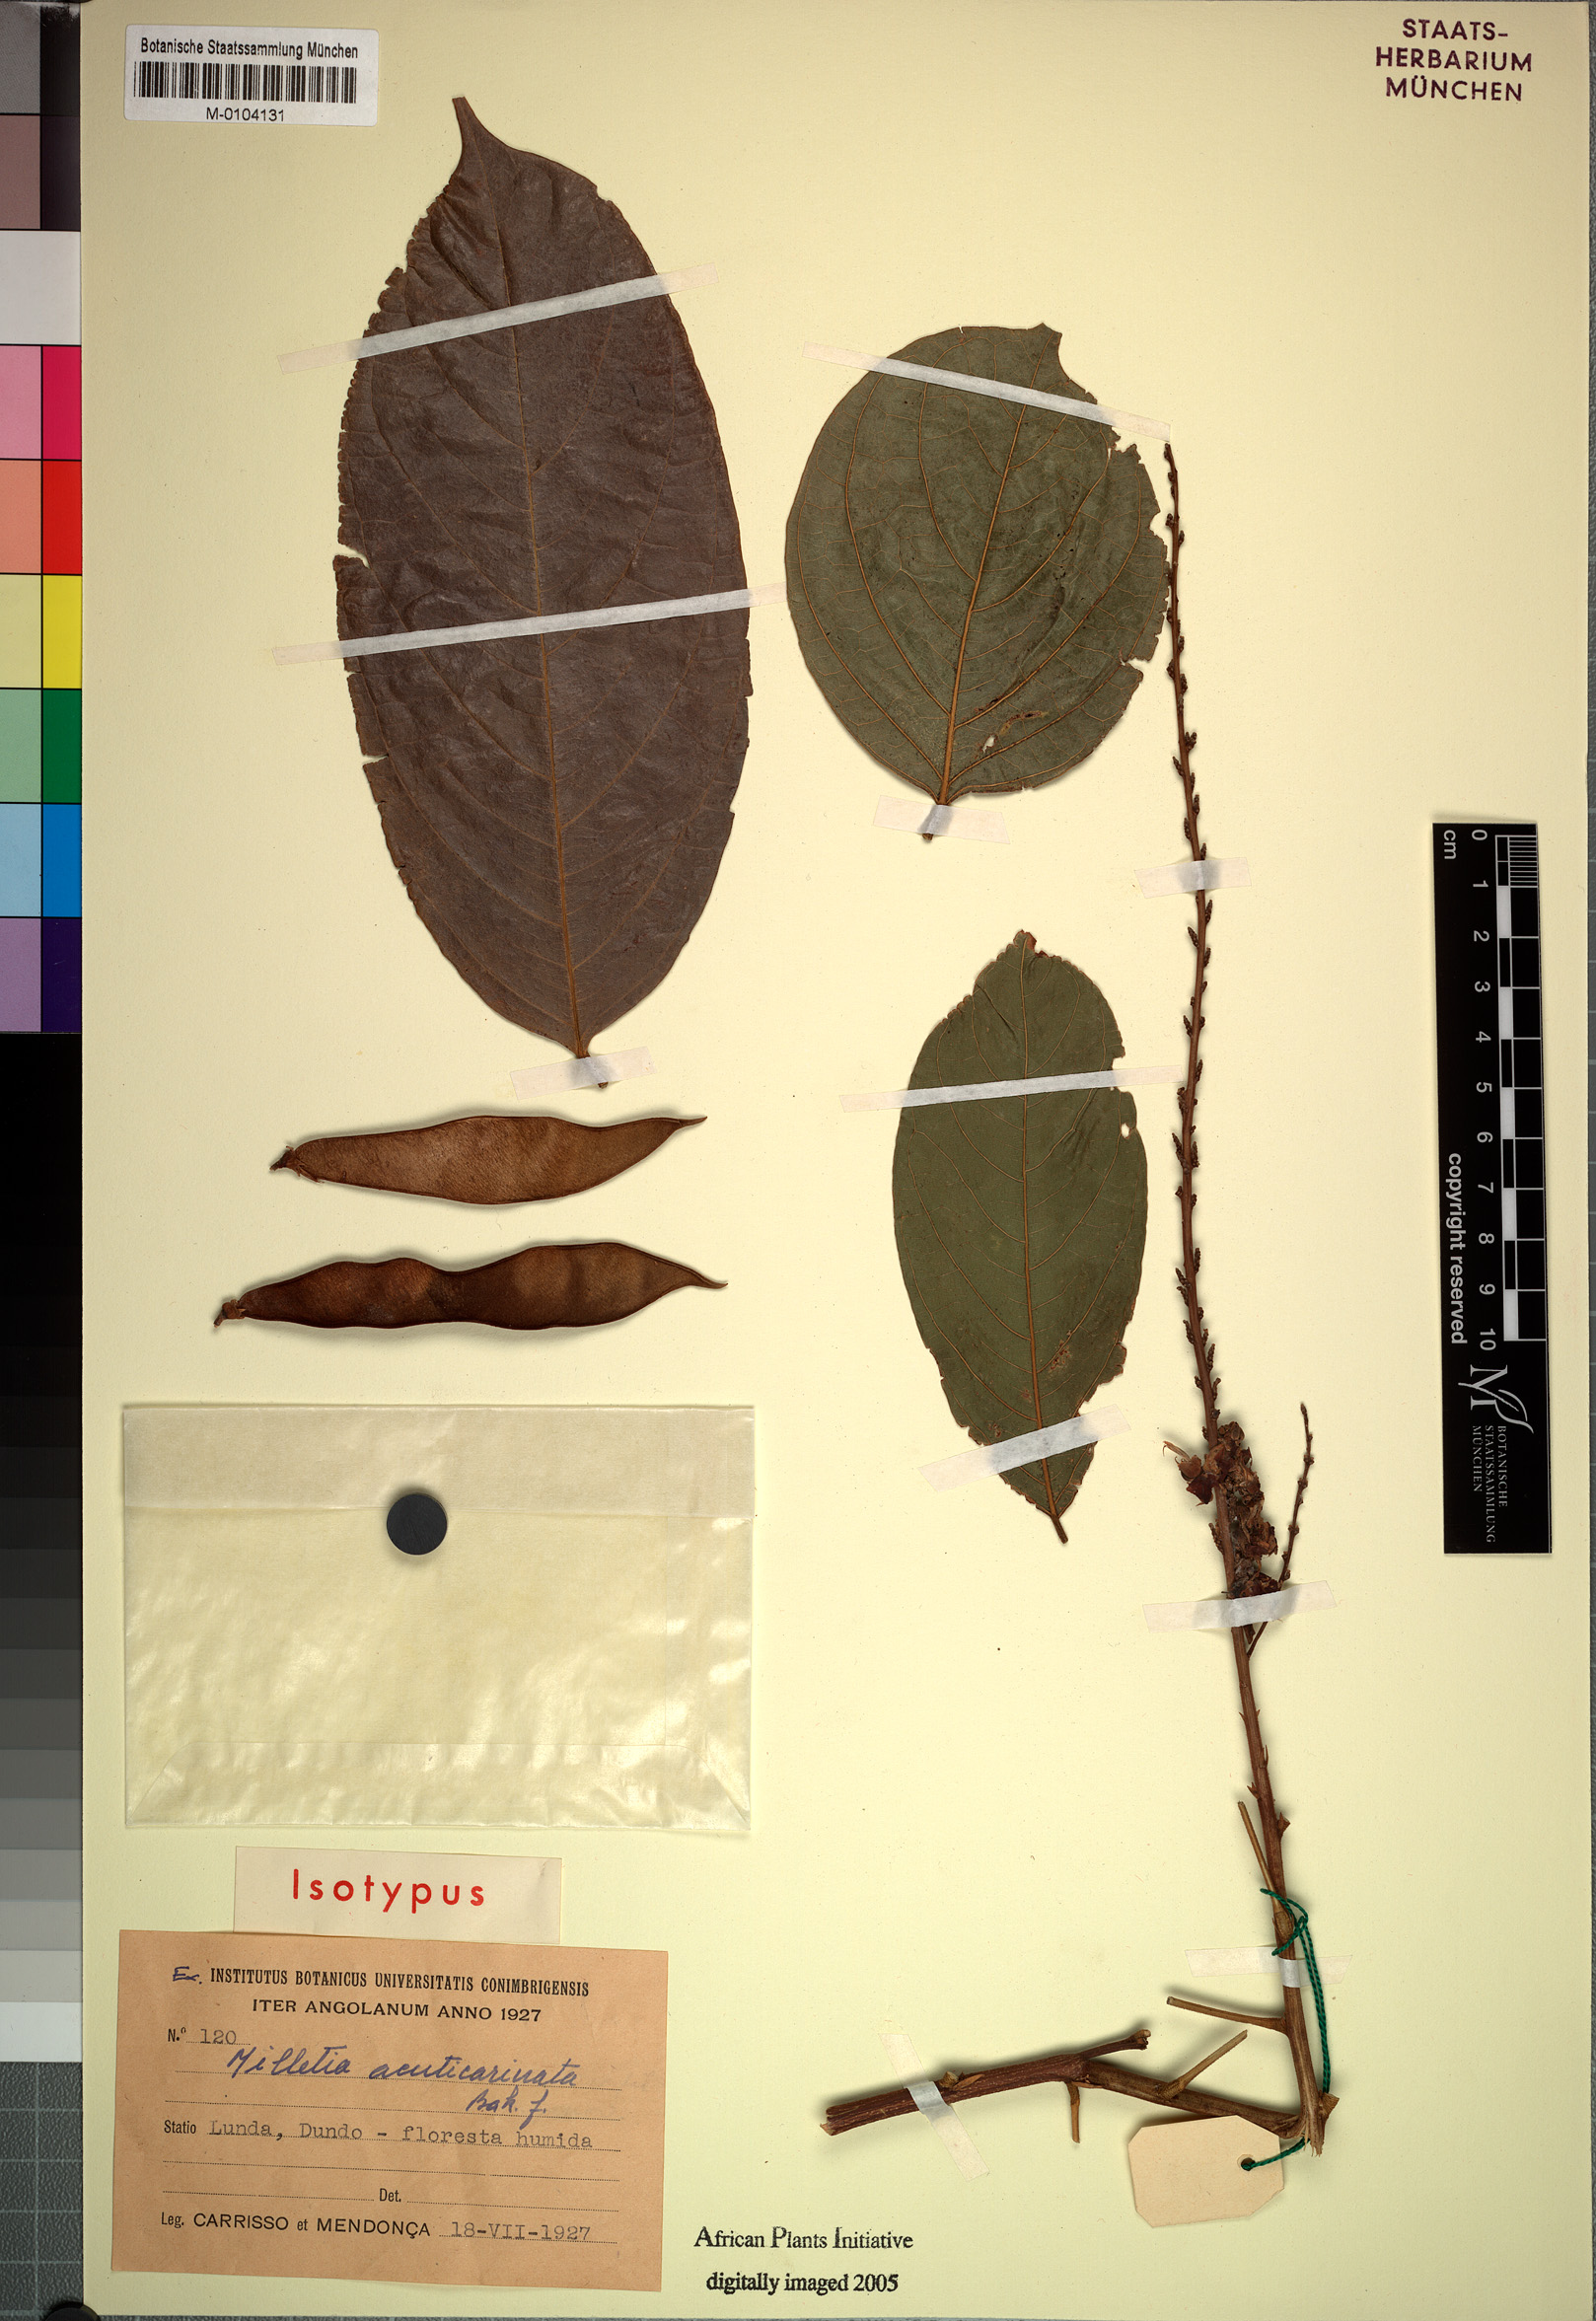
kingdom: Plantae
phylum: Tracheophyta
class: Magnoliopsida
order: Fabales
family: Fabaceae
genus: Millettia
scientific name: Millettia acuticarinata
